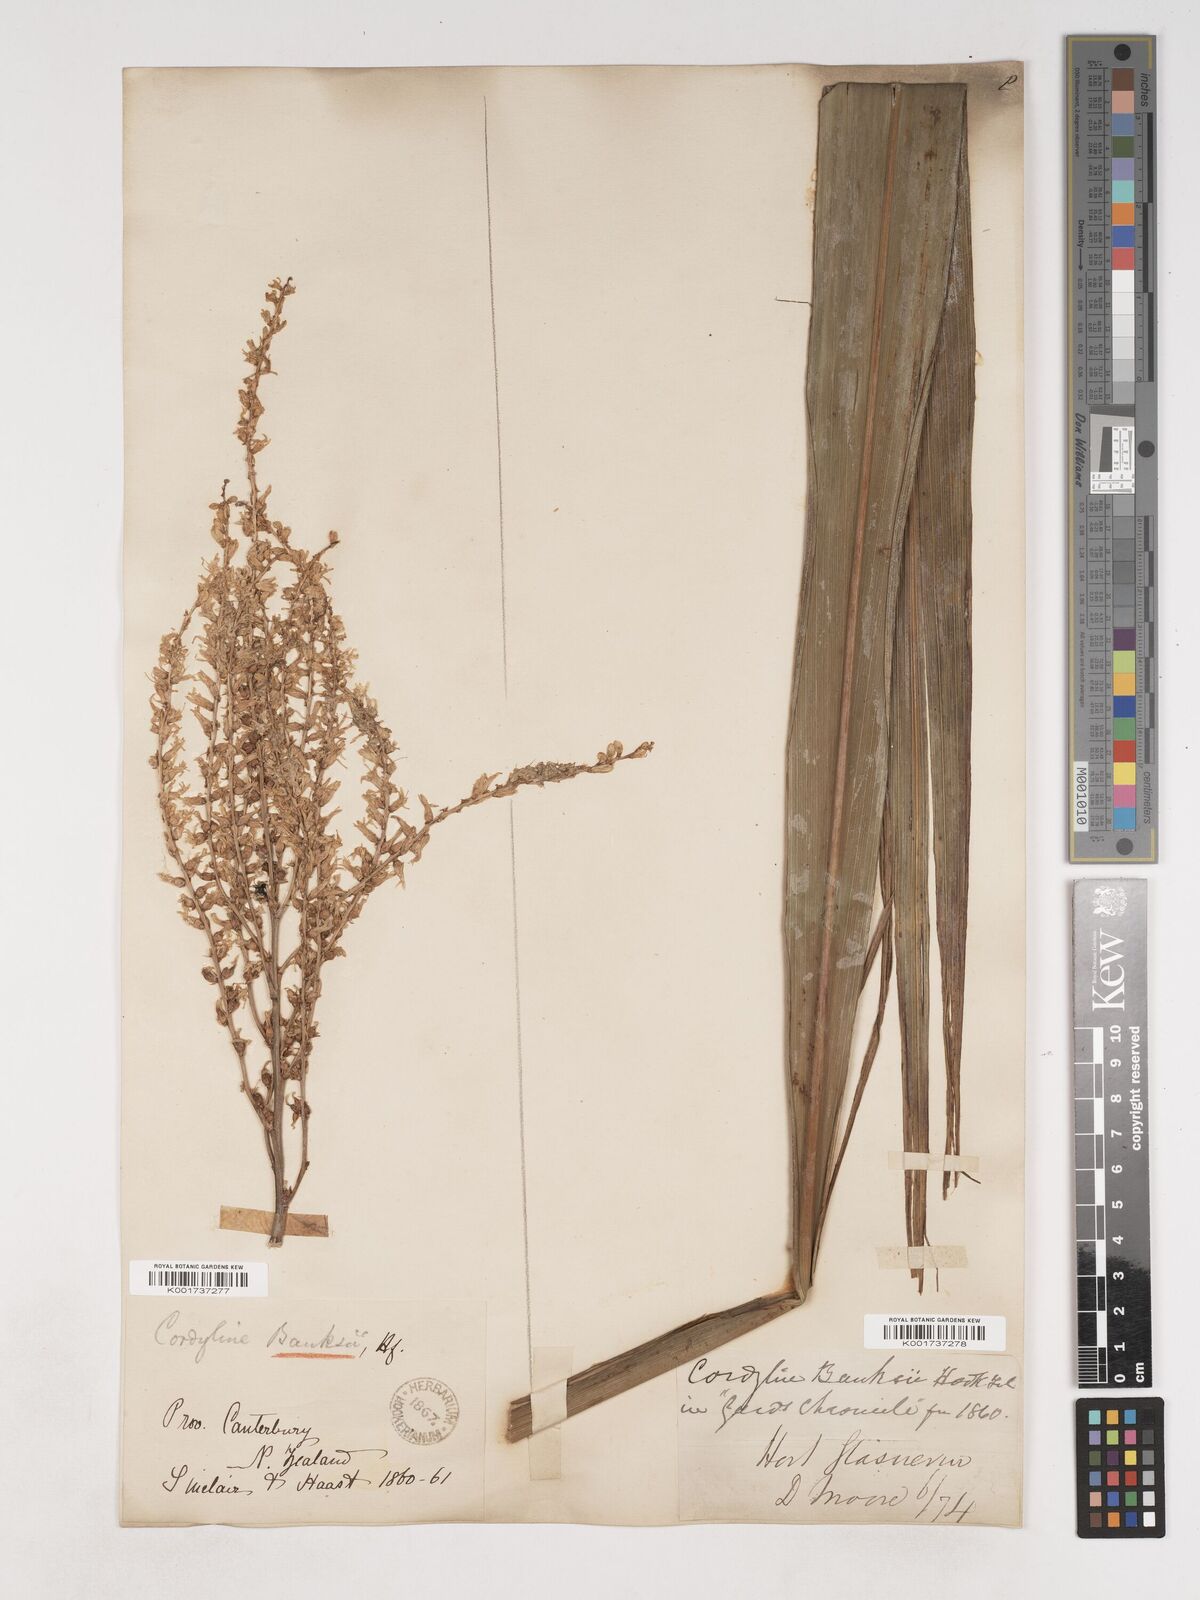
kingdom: Plantae
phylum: Tracheophyta
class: Liliopsida
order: Asparagales
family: Asparagaceae
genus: Cordyline
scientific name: Cordyline banksii
